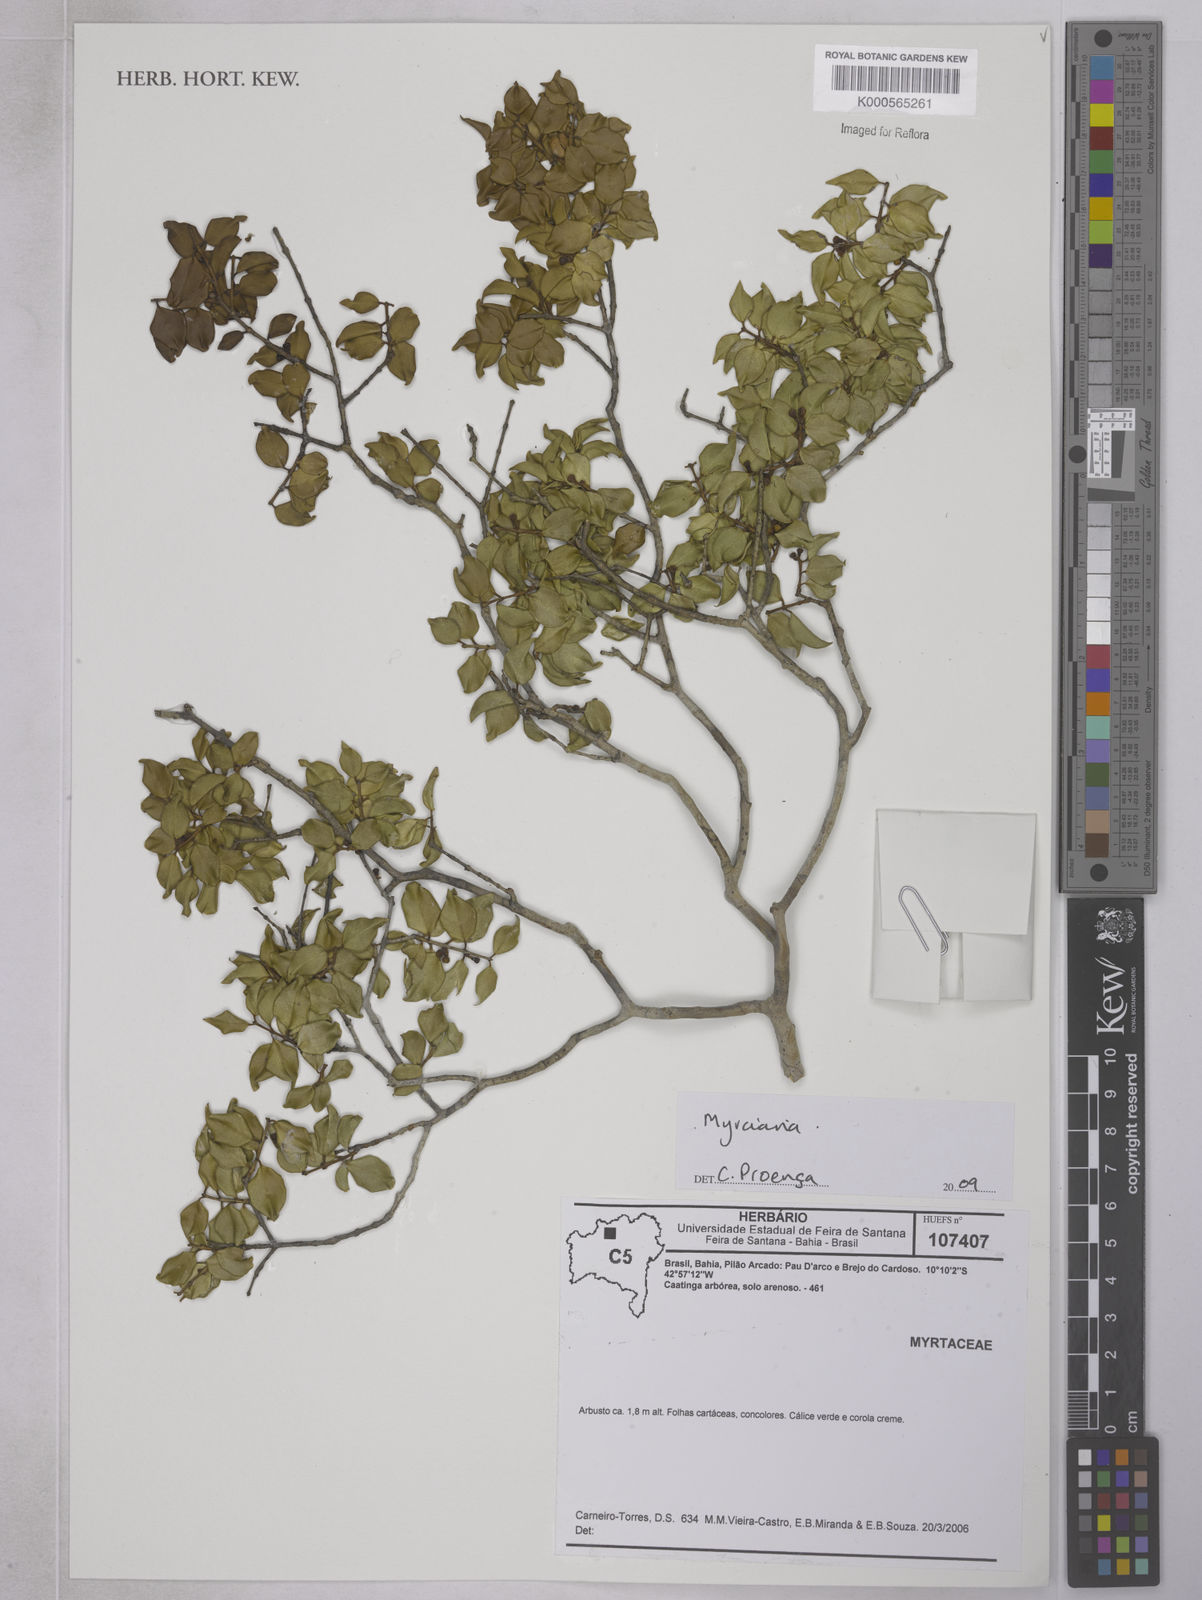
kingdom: Plantae
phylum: Tracheophyta
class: Magnoliopsida
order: Myrtales
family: Myrtaceae
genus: Siphoneugena
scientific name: Siphoneugena
